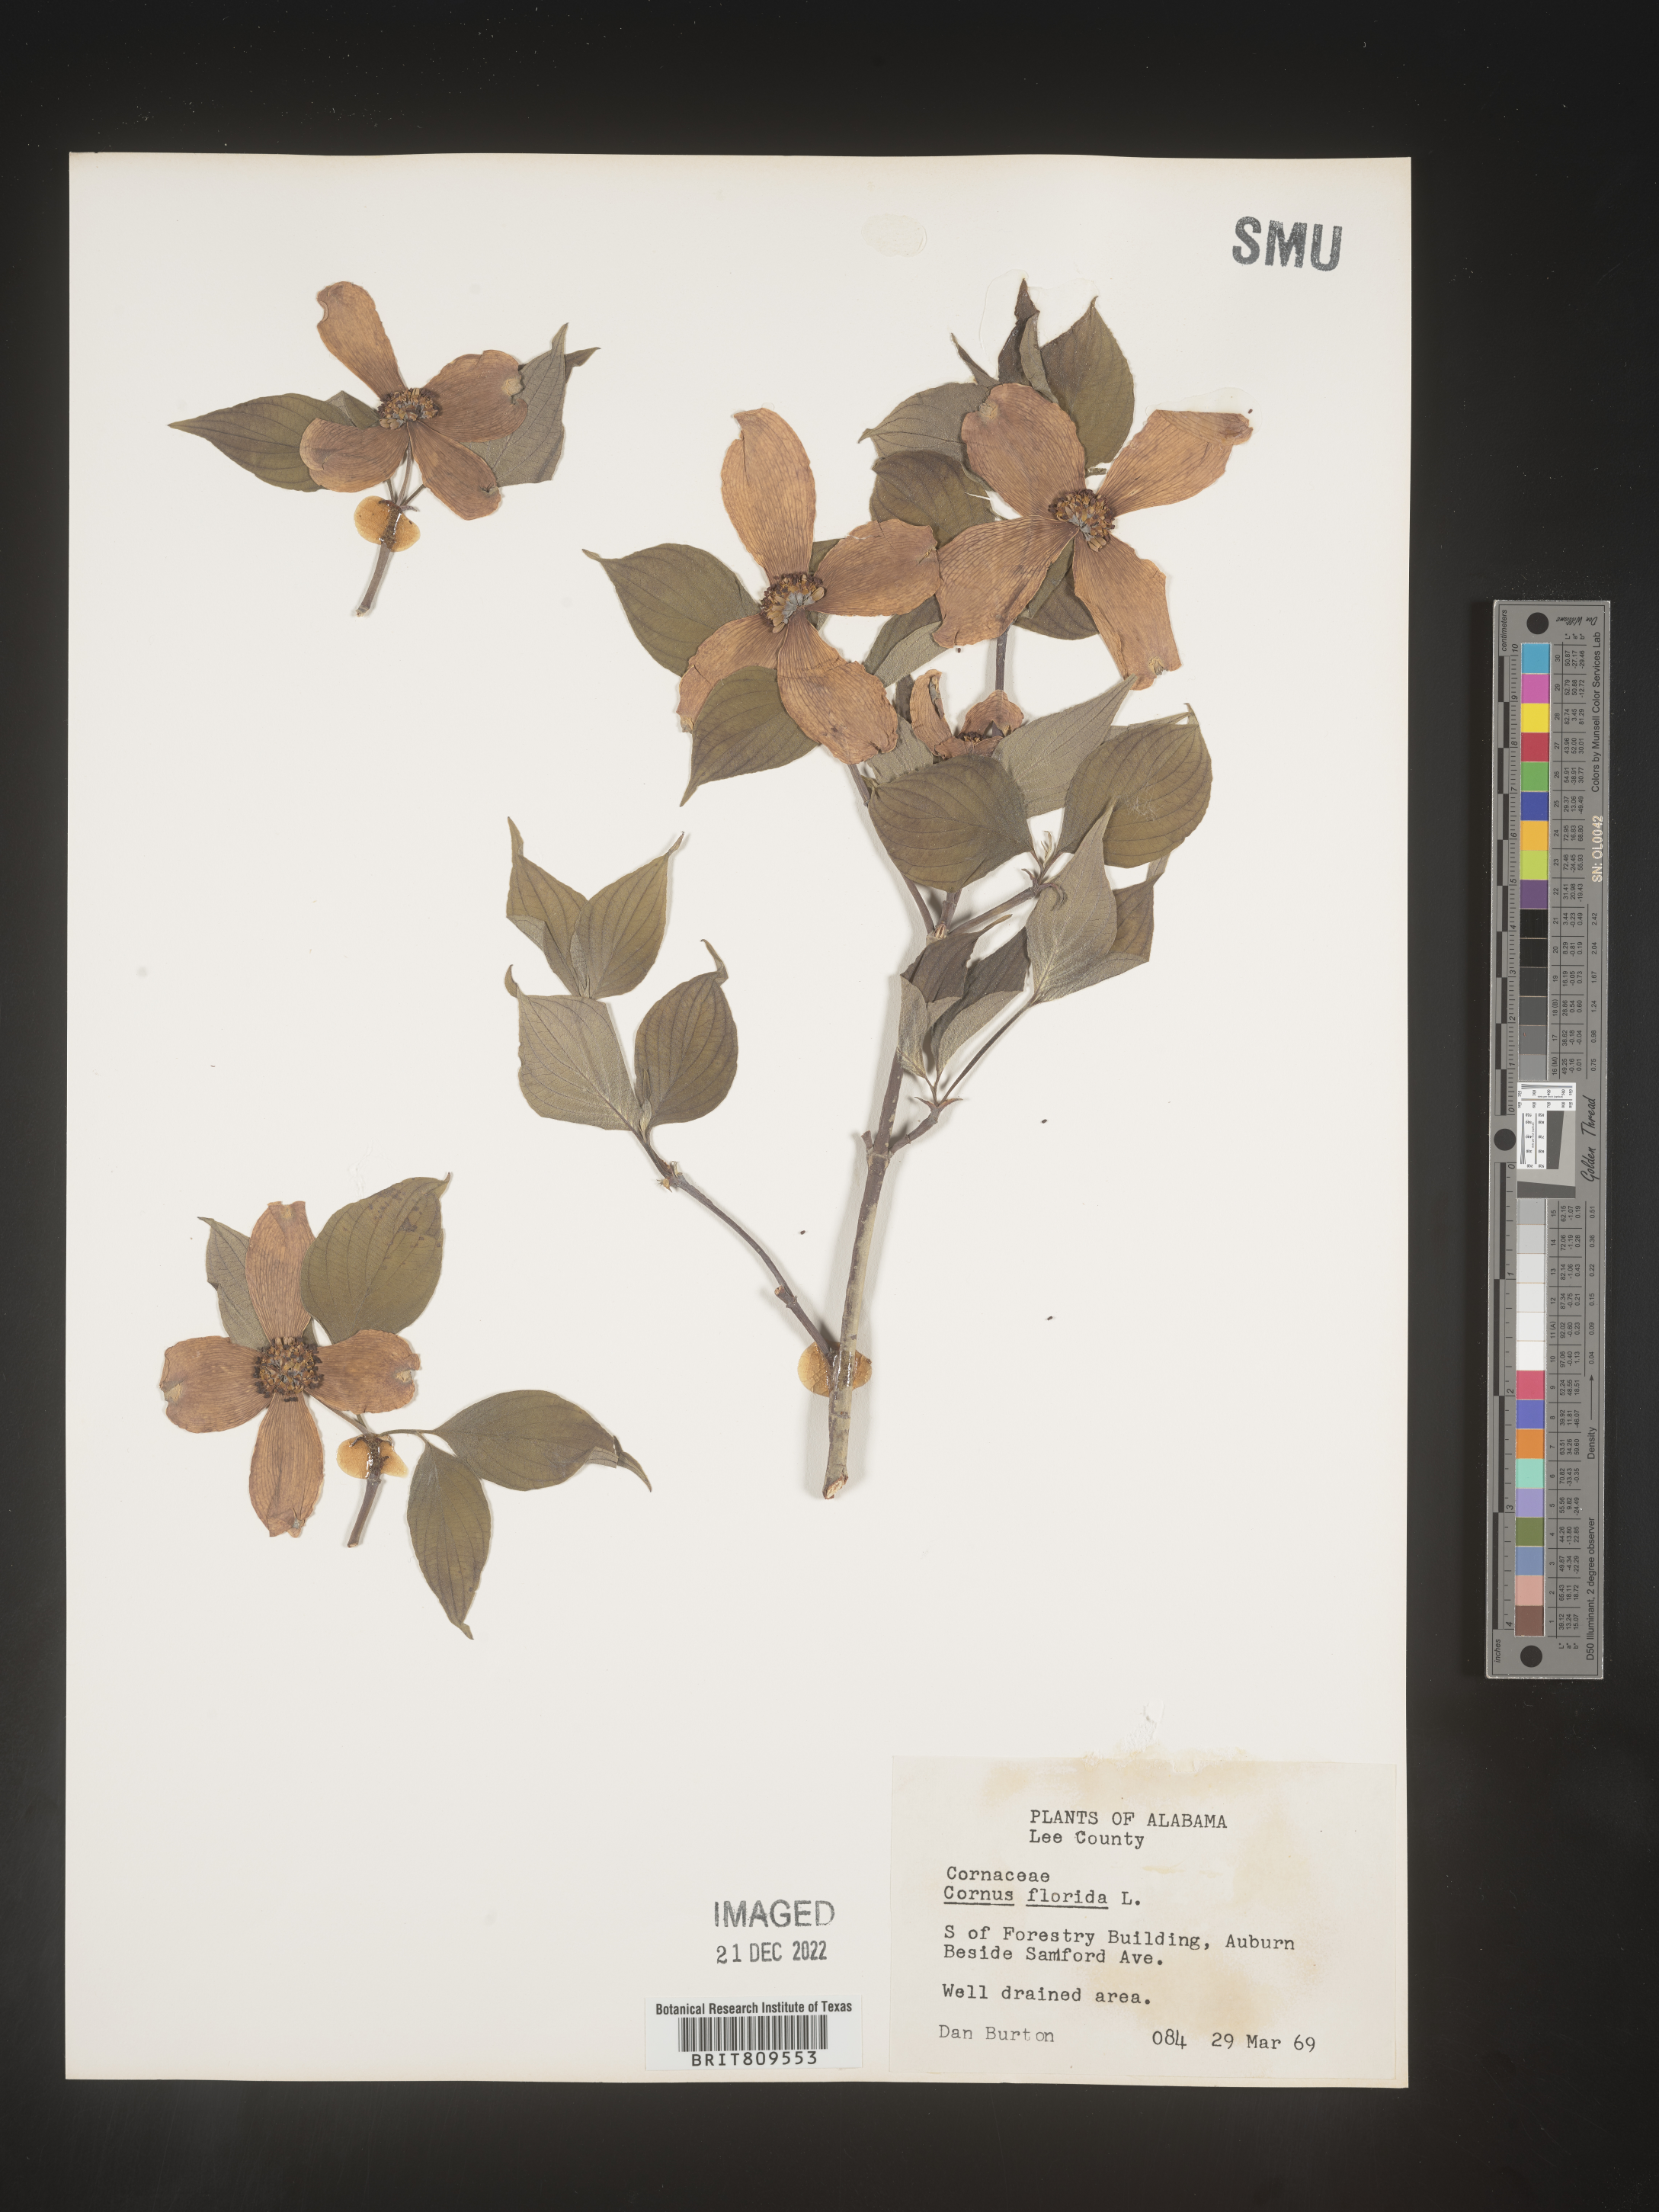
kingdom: Plantae
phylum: Tracheophyta
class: Magnoliopsida
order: Cornales
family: Cornaceae
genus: Cornus
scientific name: Cornus florida
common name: Flowering dogwood
